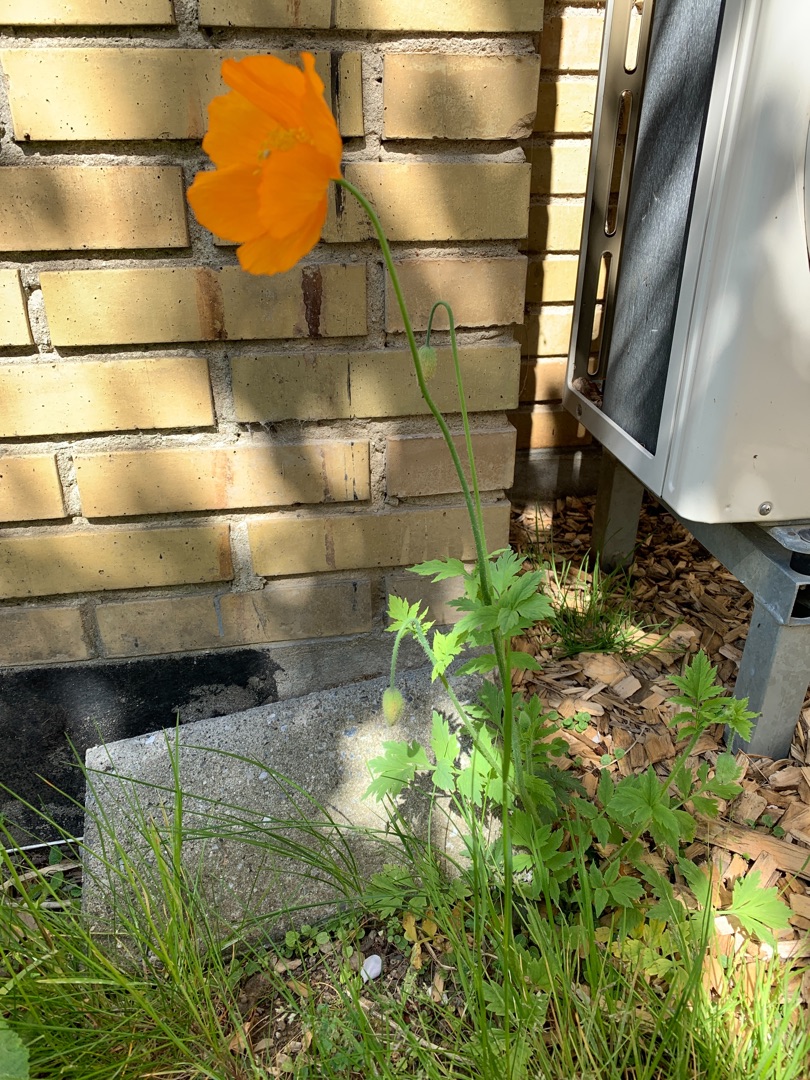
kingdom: Plantae
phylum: Tracheophyta
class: Magnoliopsida
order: Ranunculales
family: Papaveraceae
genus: Papaver
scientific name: Papaver cambricum
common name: Skov-valmue
